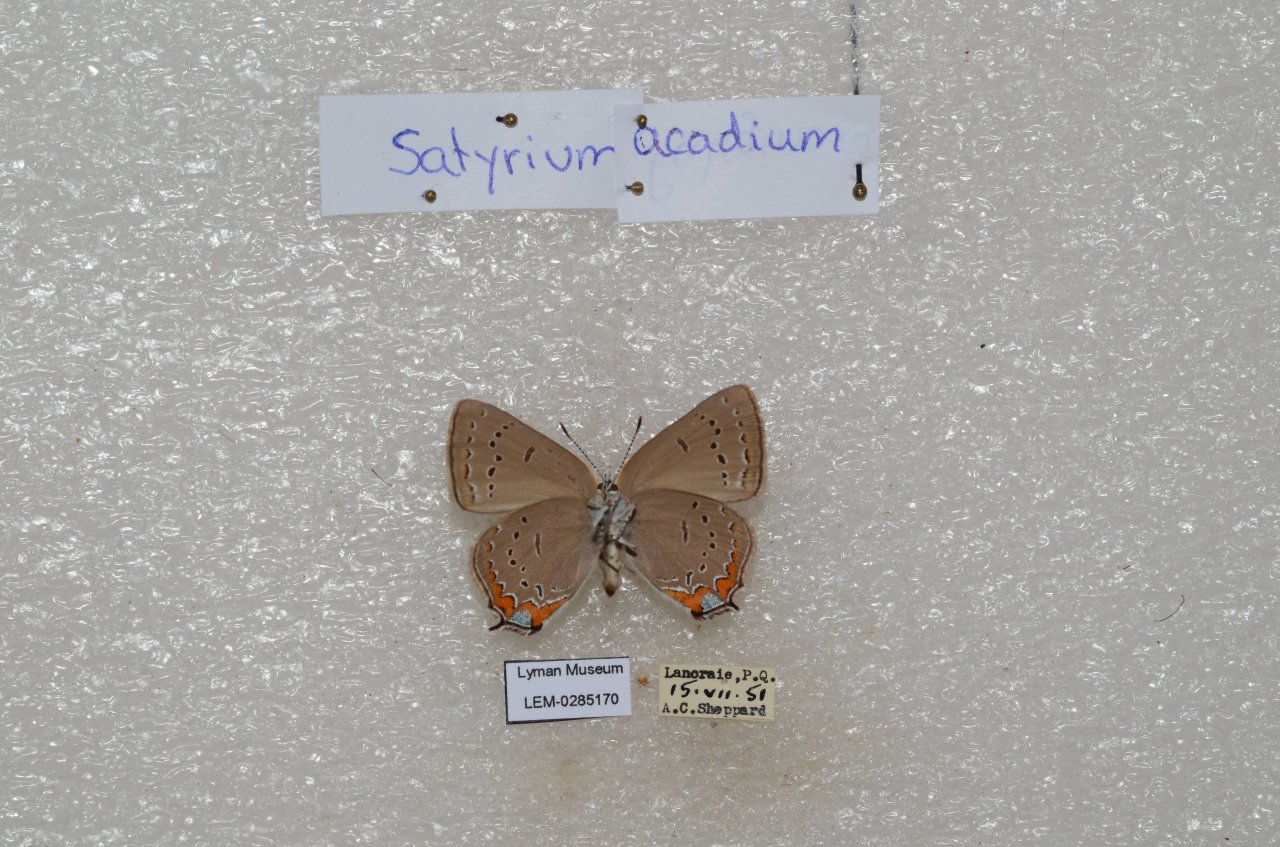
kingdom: Animalia
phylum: Arthropoda
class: Insecta
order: Lepidoptera
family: Lycaenidae
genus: Strymon
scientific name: Strymon acadica
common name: Acadian Hairstreak
